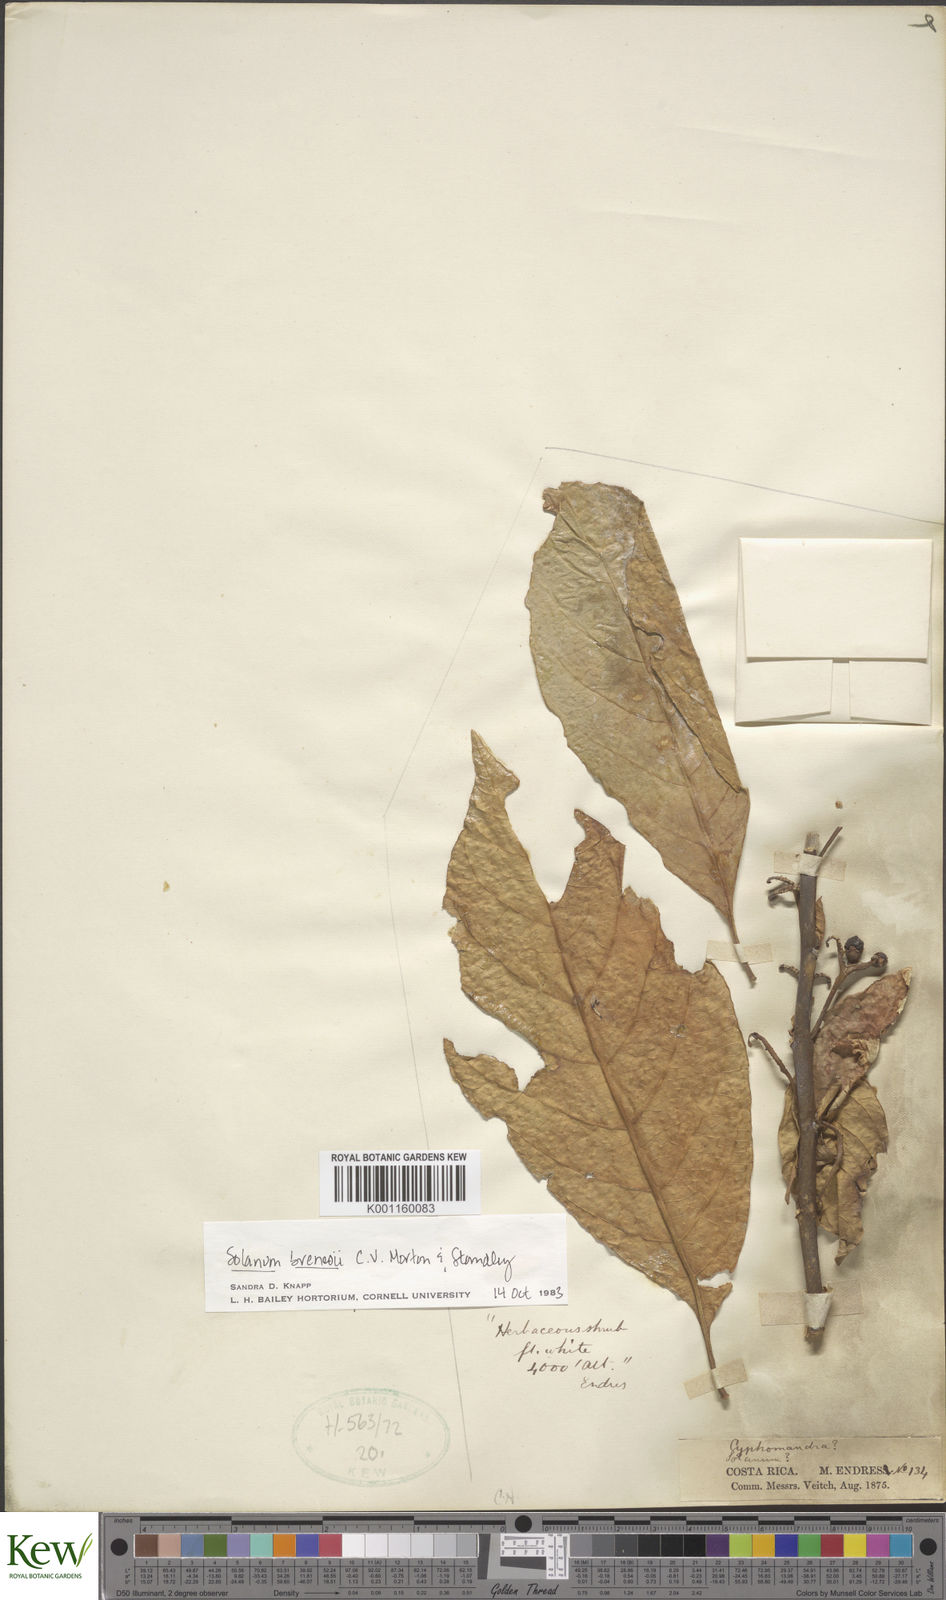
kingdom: Plantae
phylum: Tracheophyta
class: Magnoliopsida
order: Solanales
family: Solanaceae
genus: Solanum
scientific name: Solanum rovirosanum
